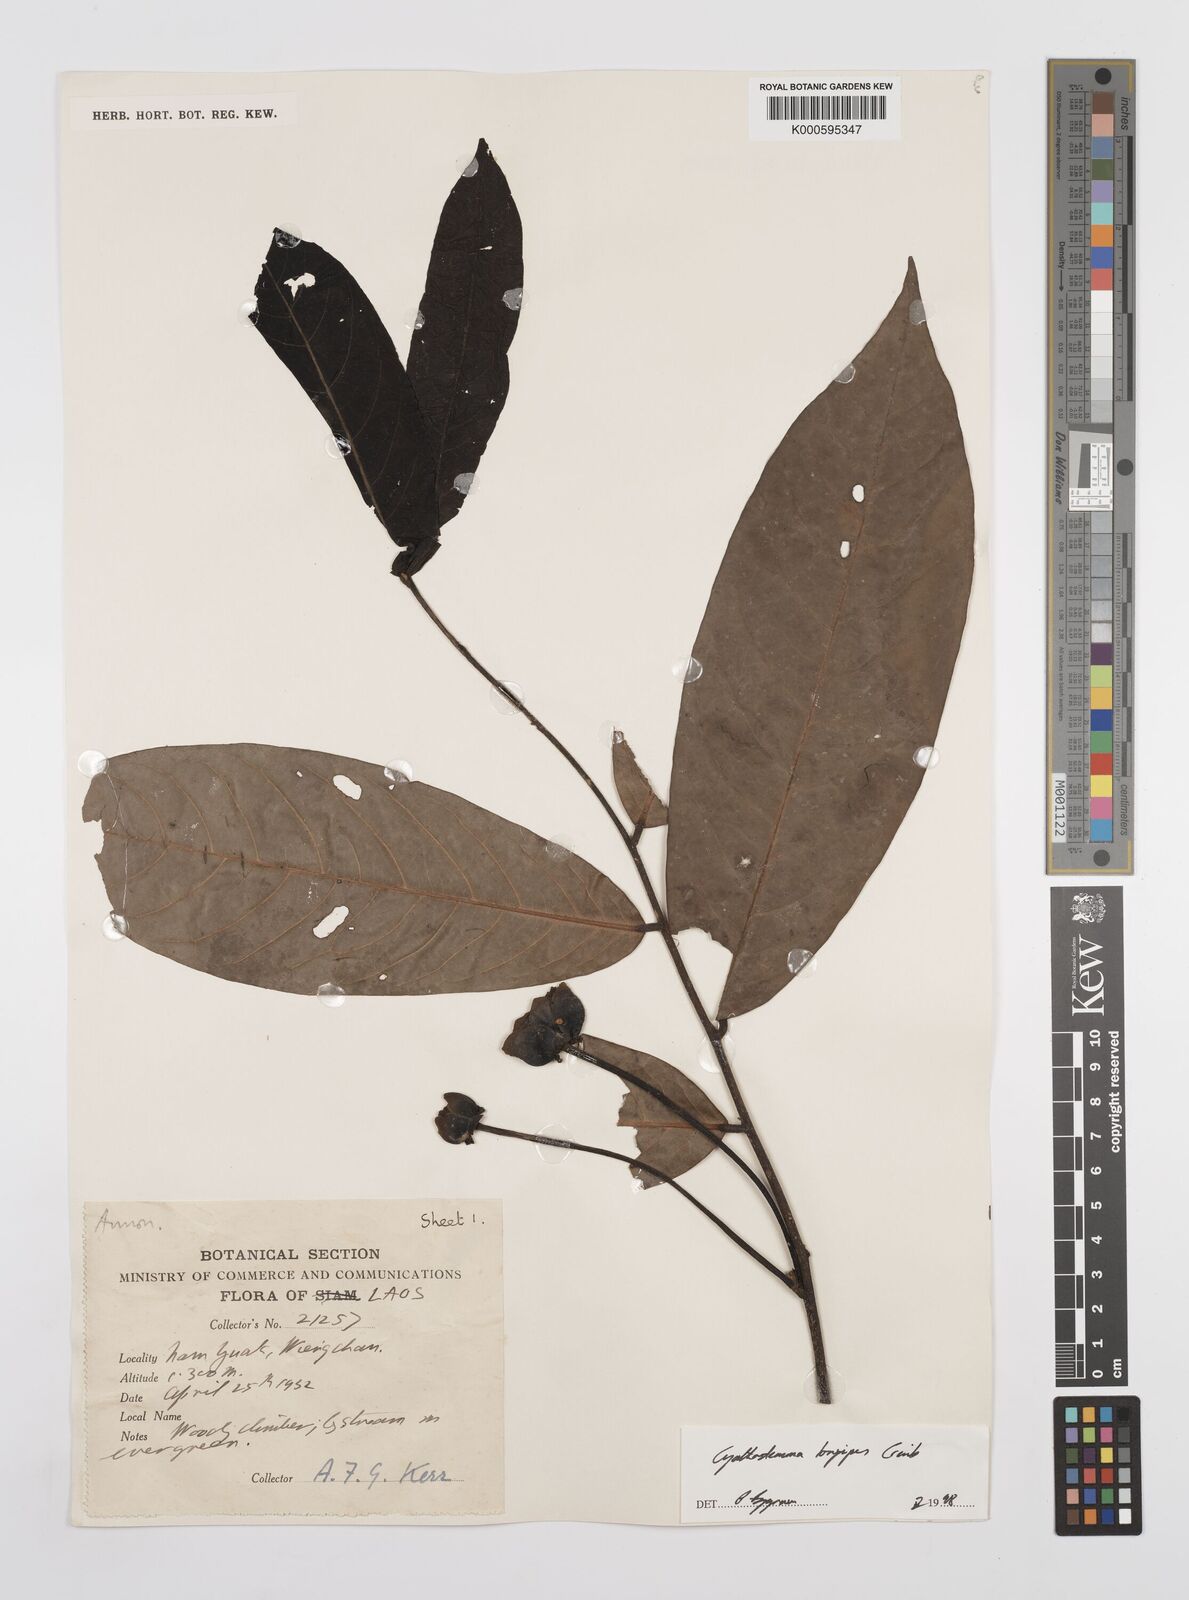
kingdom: Plantae
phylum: Tracheophyta
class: Magnoliopsida
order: Magnoliales
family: Annonaceae
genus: Uvaria
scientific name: Uvaria longipes
